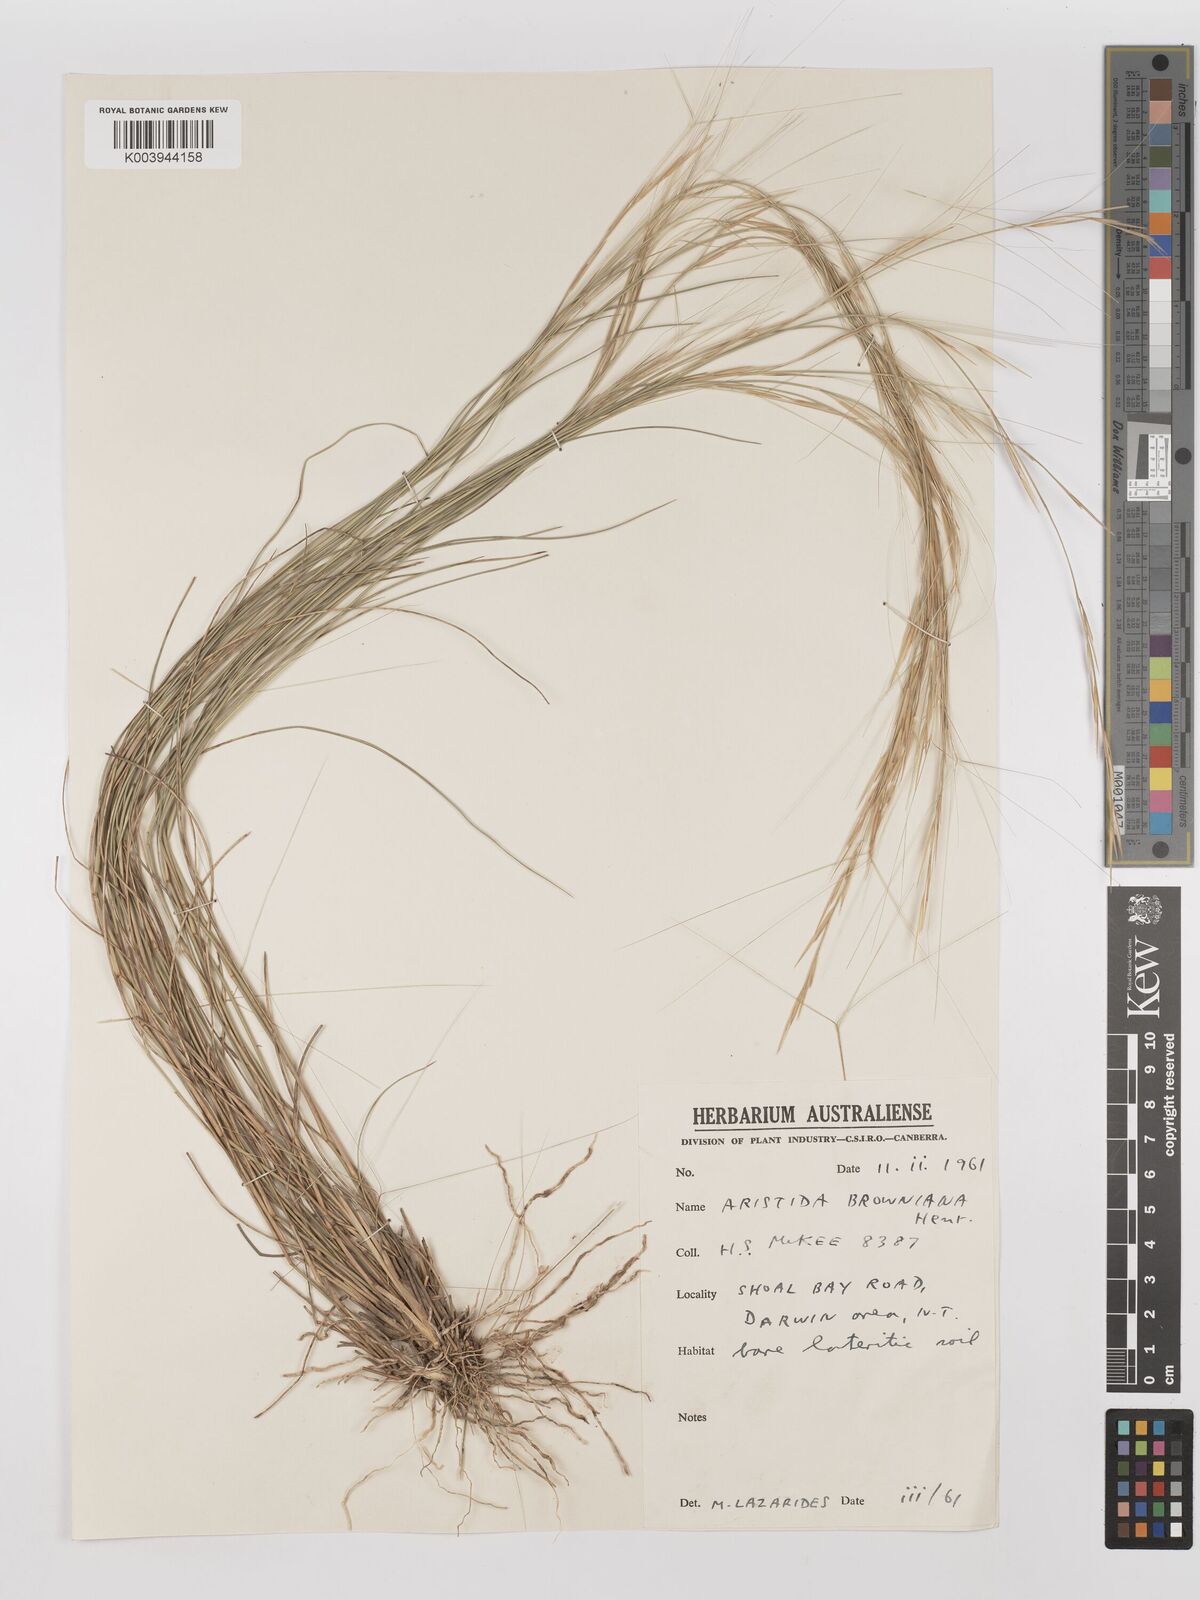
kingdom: Plantae
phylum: Tracheophyta
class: Liliopsida
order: Poales
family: Poaceae
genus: Aristida
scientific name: Aristida holathera
